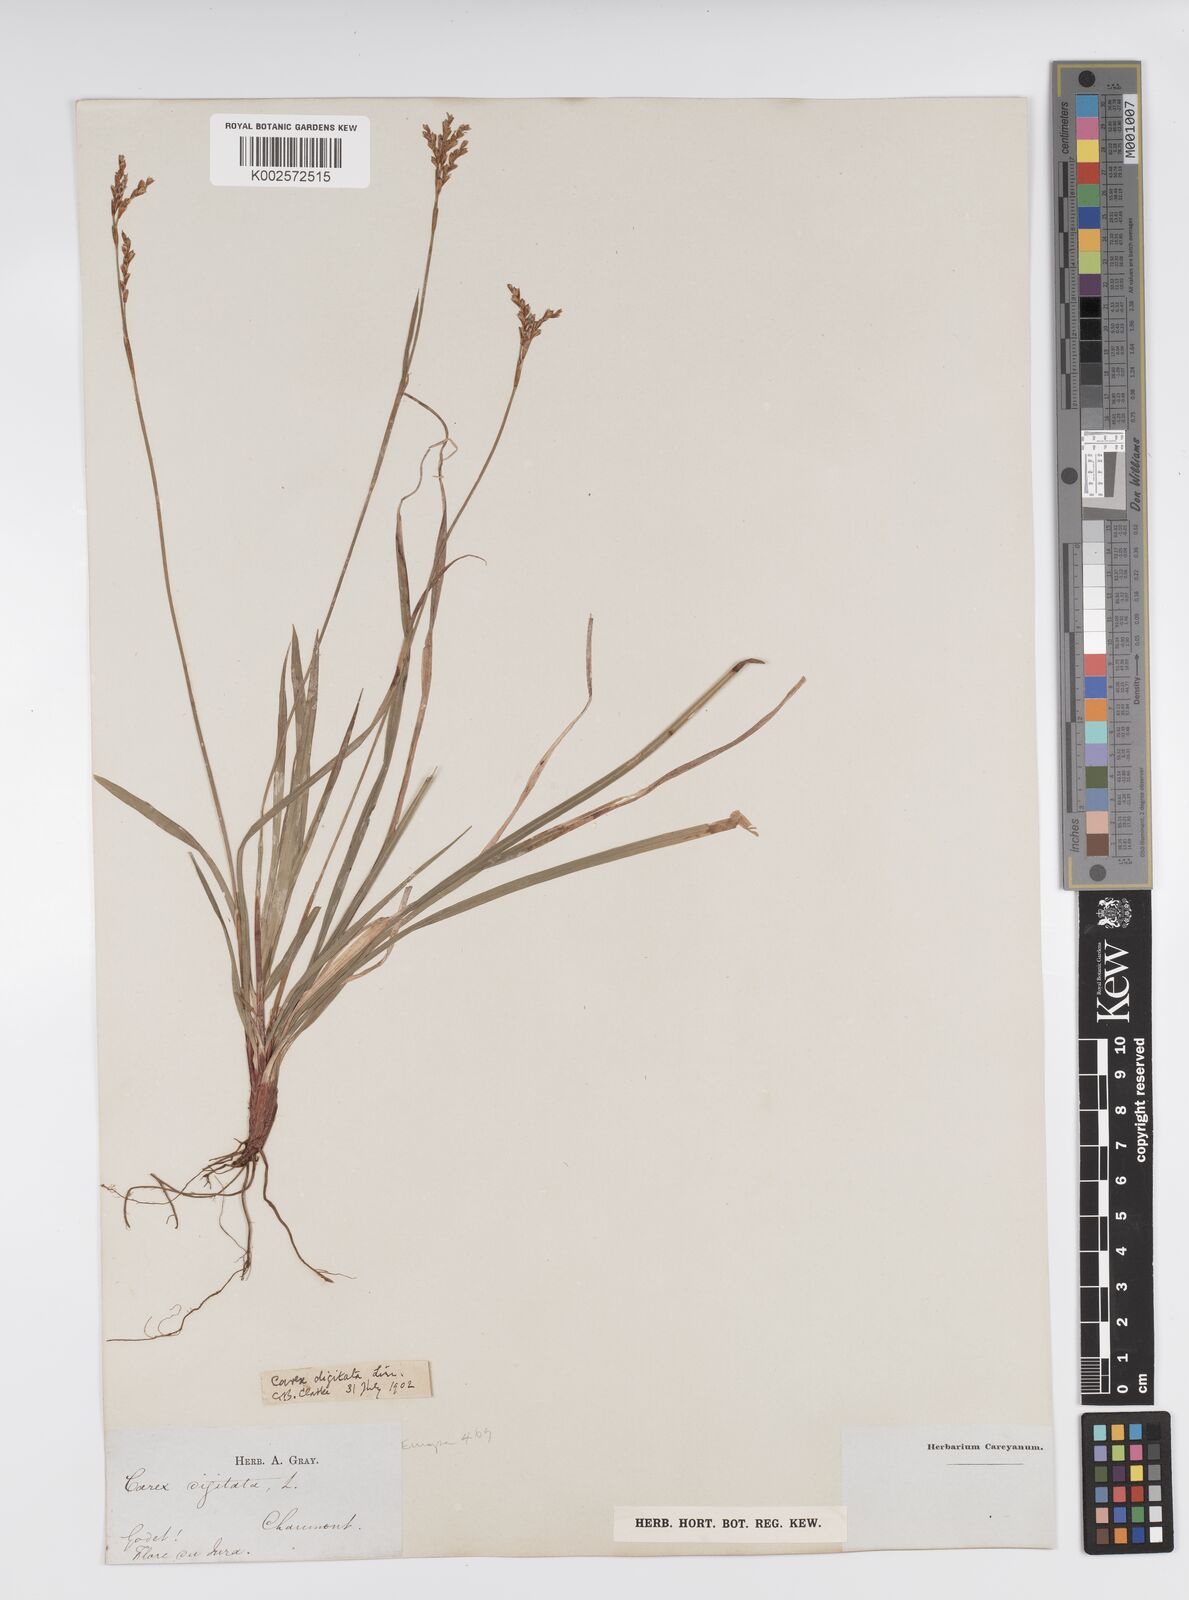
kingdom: Plantae
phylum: Tracheophyta
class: Liliopsida
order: Poales
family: Cyperaceae
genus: Carex
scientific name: Carex digitata
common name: Fingered sedge
